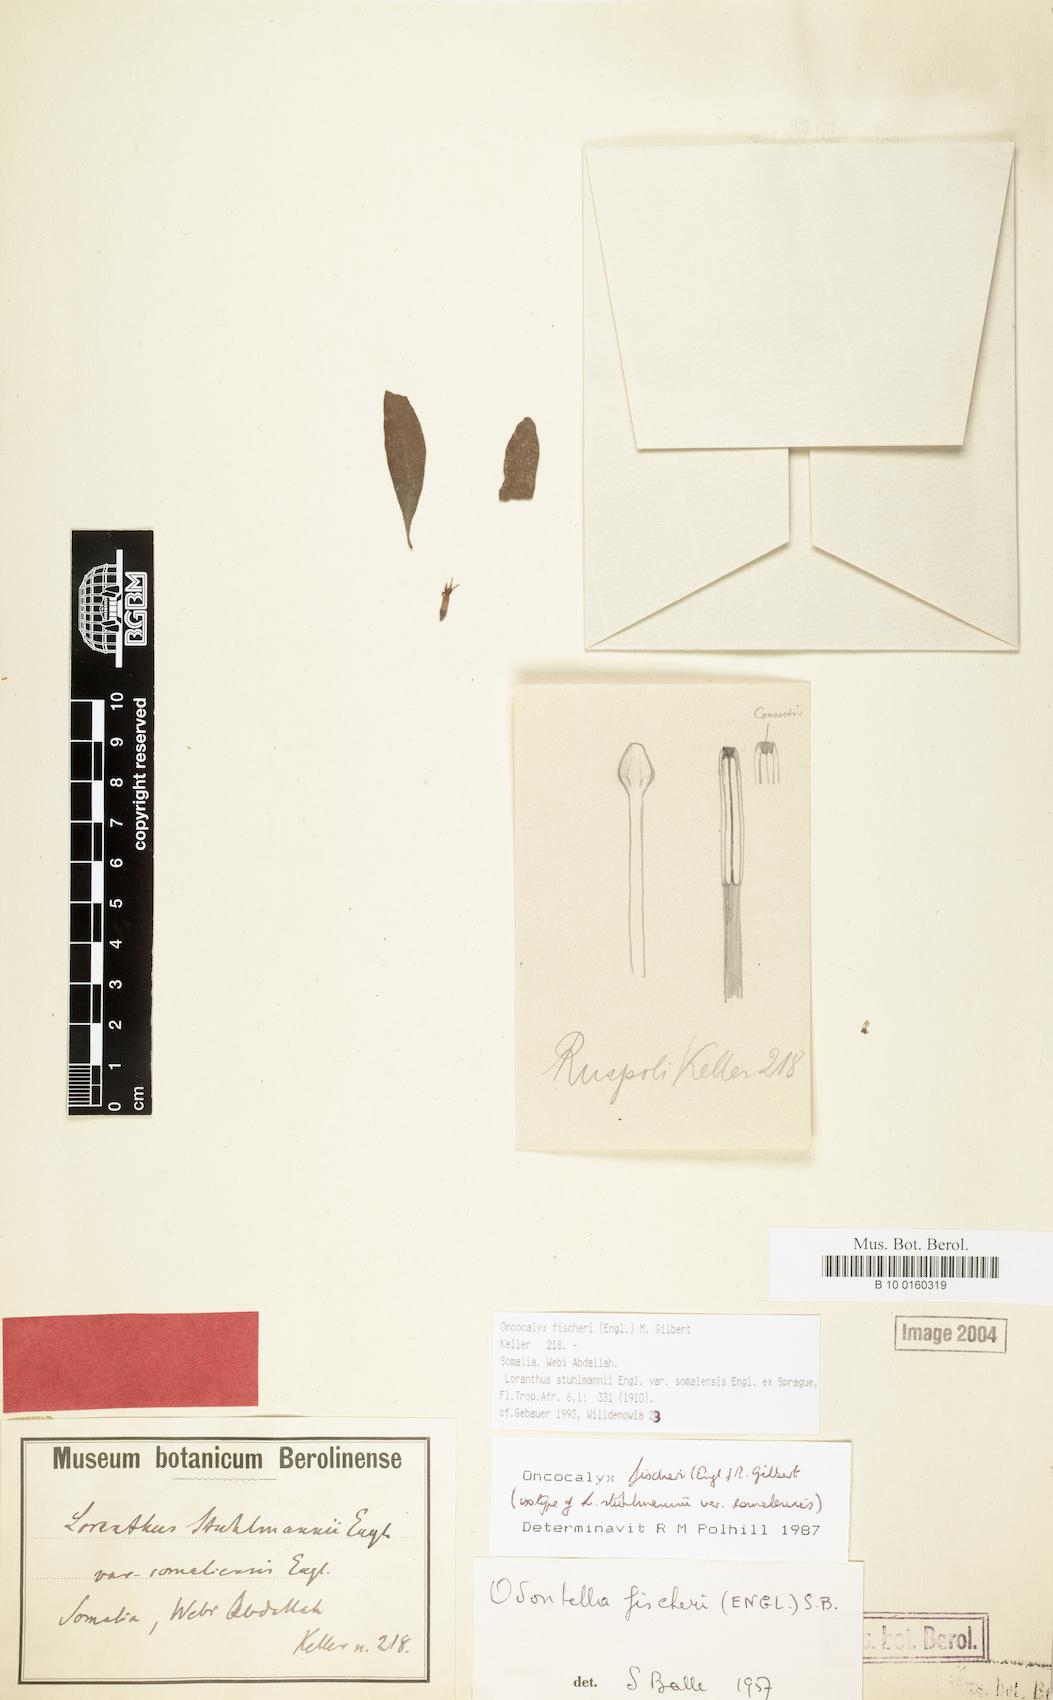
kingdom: Plantae
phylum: Tracheophyta
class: Magnoliopsida
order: Santalales
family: Loranthaceae
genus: Oncocalyx
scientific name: Oncocalyx fischeri
